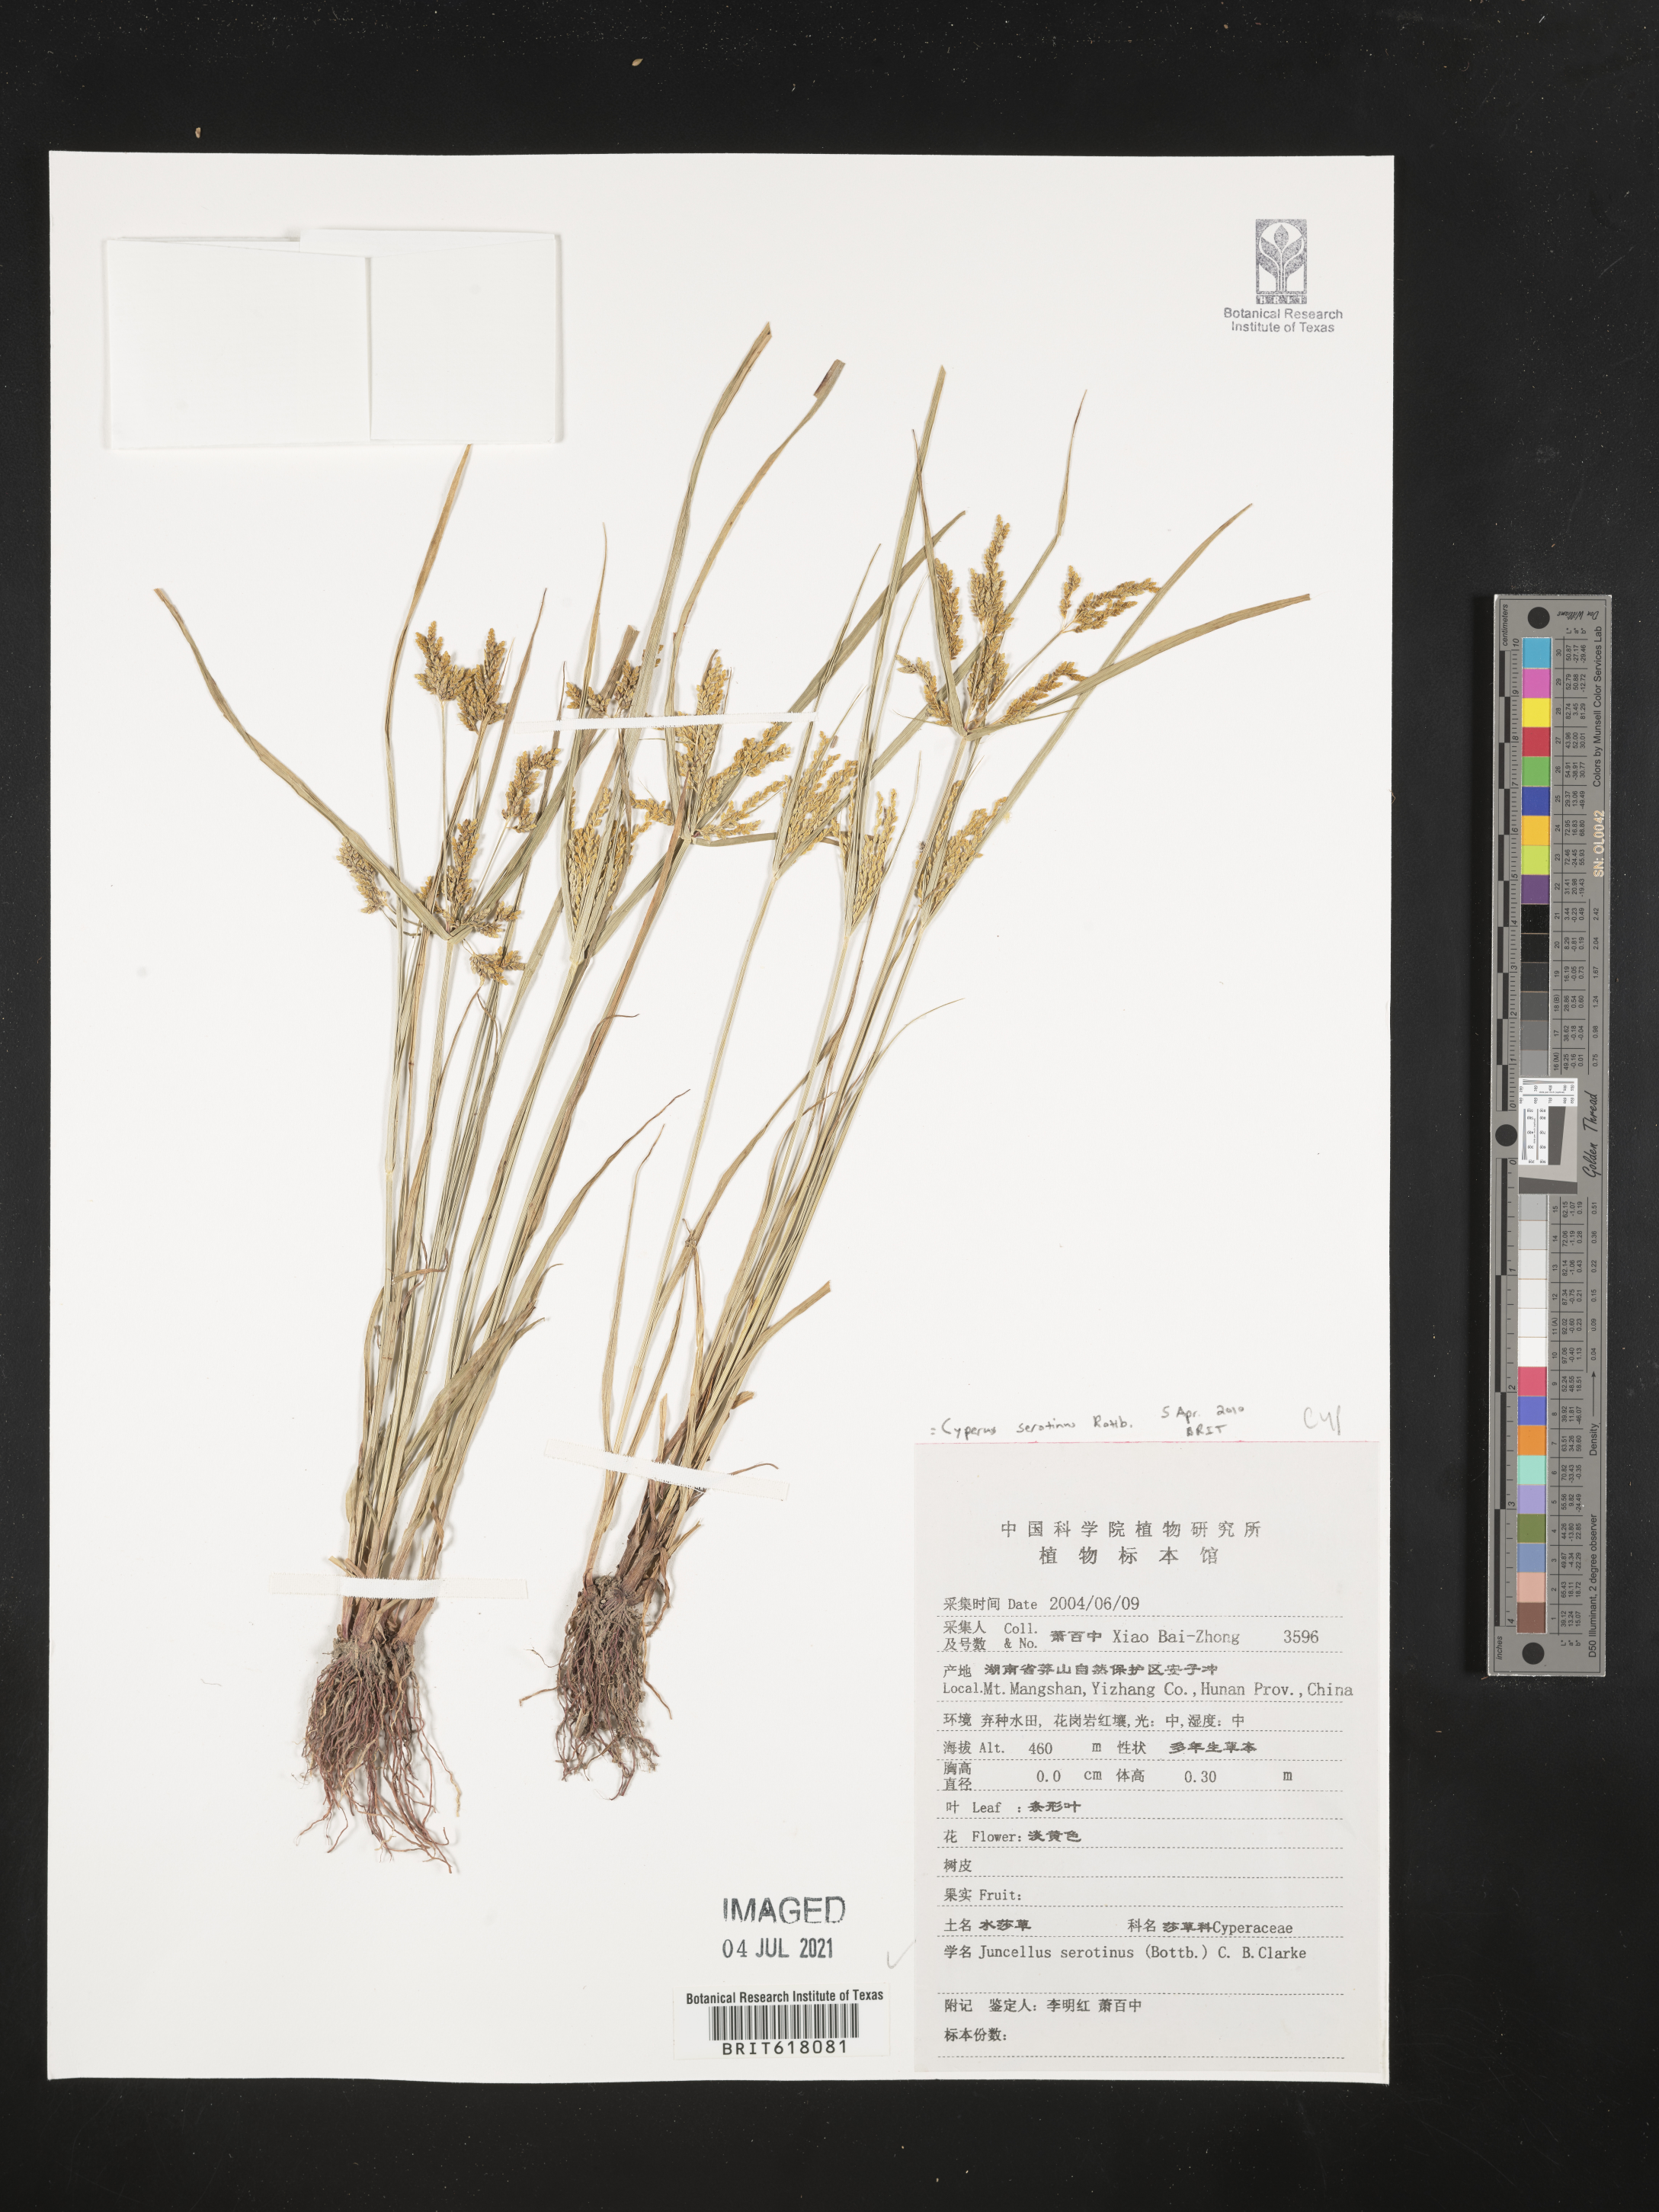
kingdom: Plantae
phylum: Tracheophyta
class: Liliopsida
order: Poales
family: Cyperaceae
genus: Cyperus
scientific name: Cyperus serotinus
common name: Tidalmarsh flatsedge
